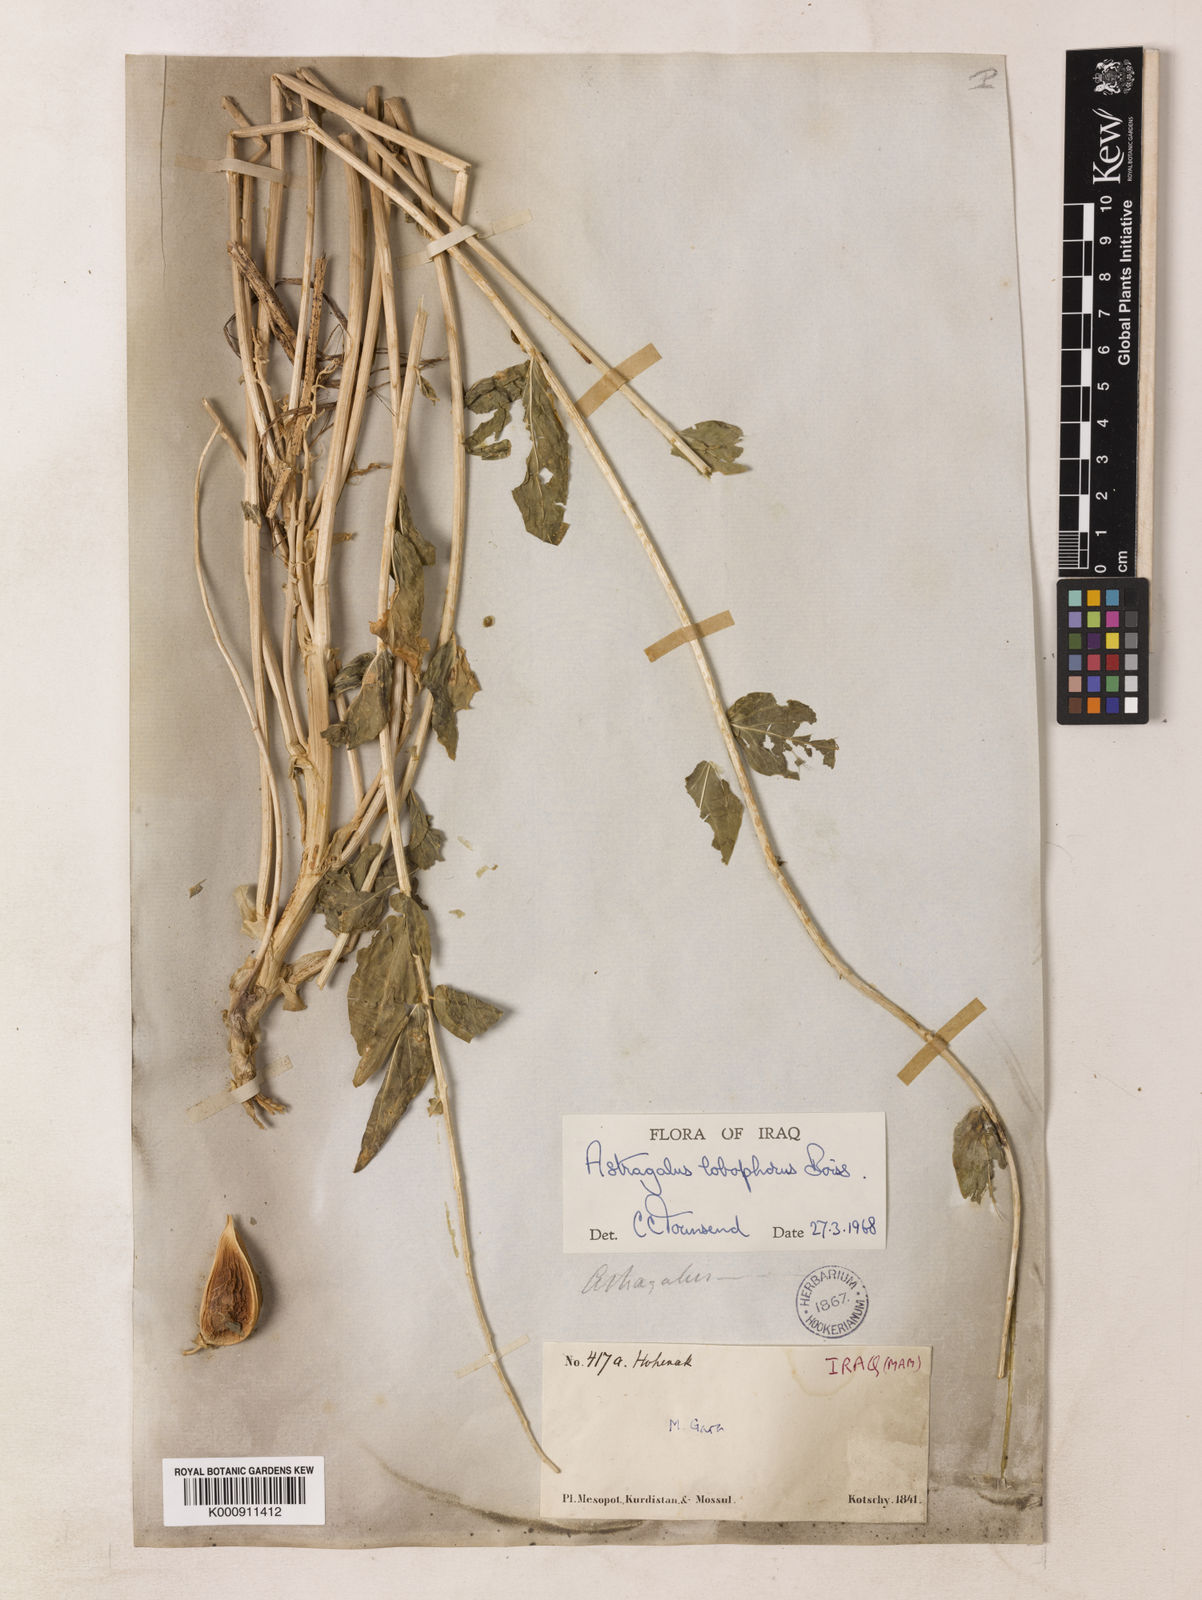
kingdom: Plantae
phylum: Tracheophyta
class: Magnoliopsida
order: Fabales
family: Fabaceae
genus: Astragalus
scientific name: Astragalus ovinus
